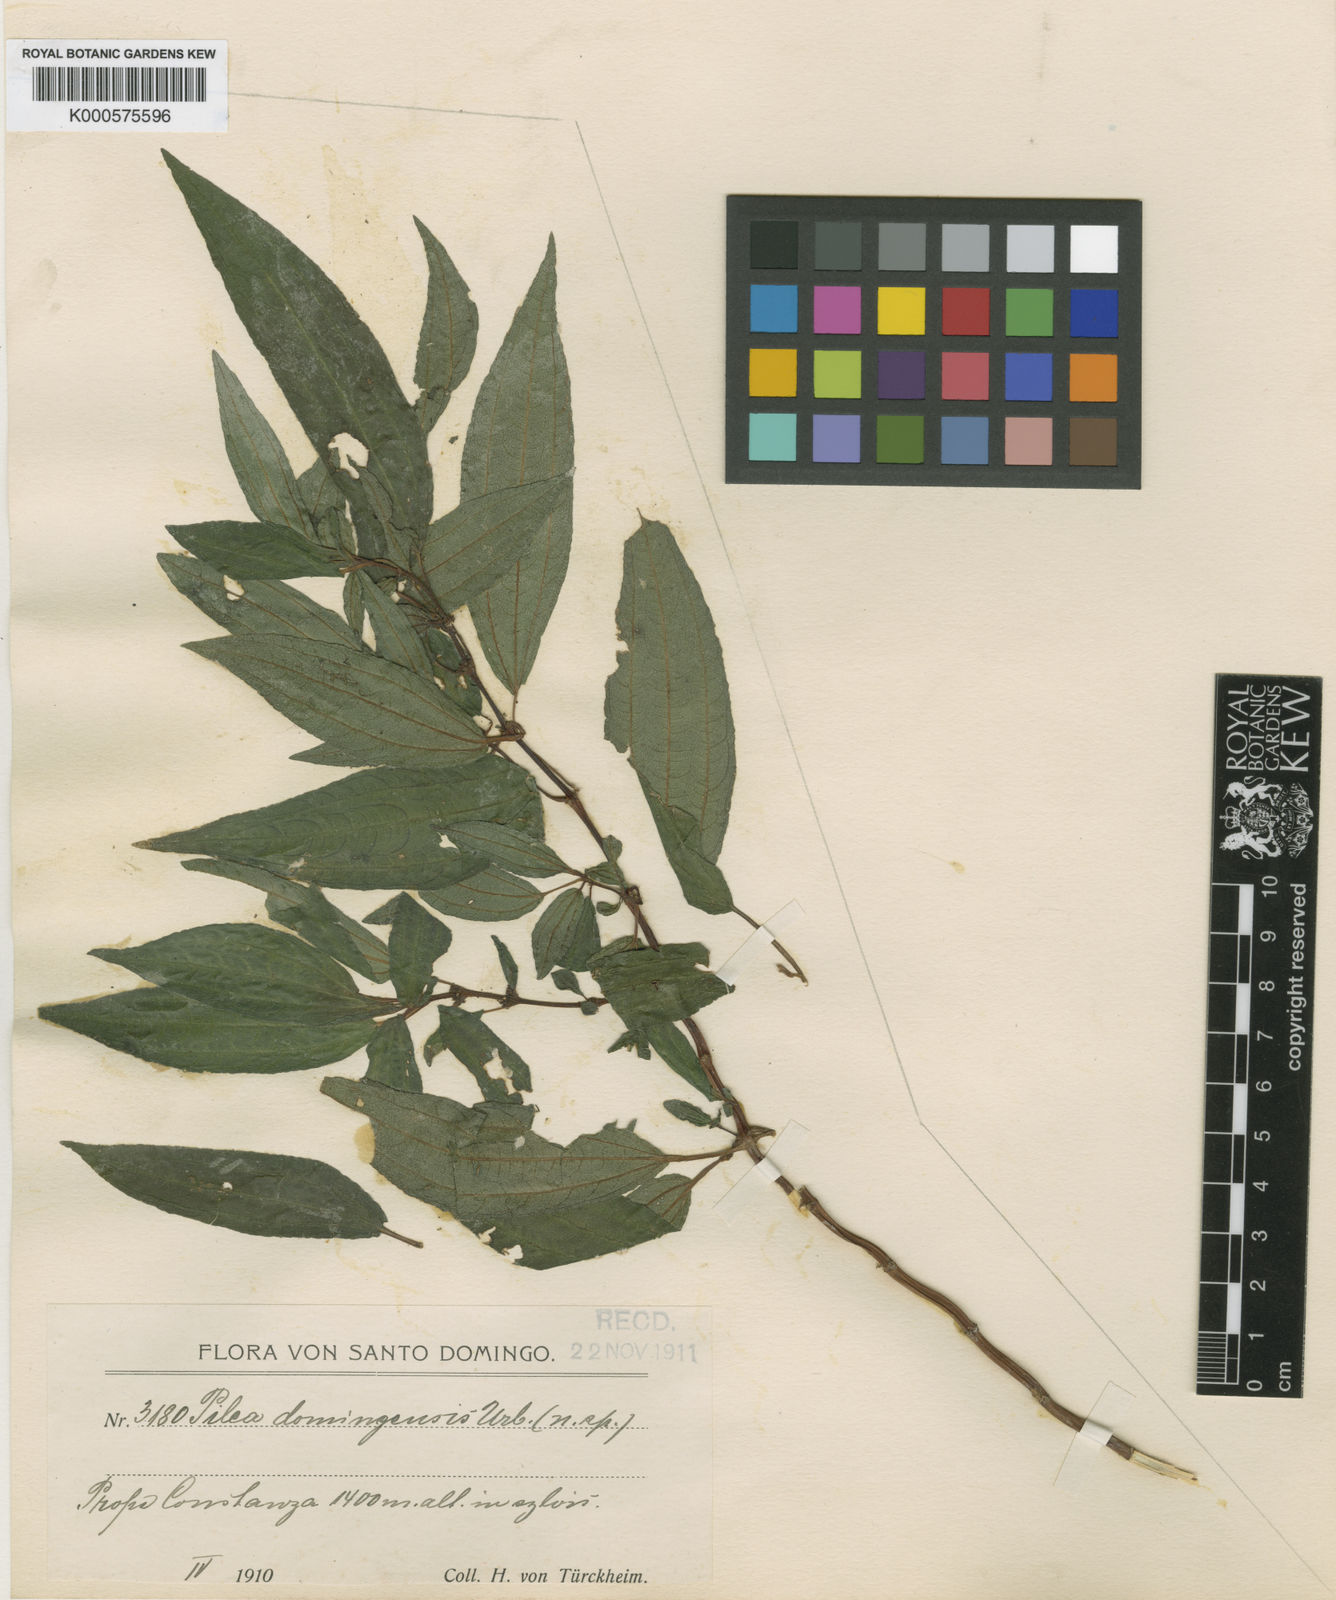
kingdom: Plantae
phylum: Tracheophyta
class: Magnoliopsida
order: Rosales
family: Urticaceae
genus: Pilea
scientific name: Pilea domingensis
